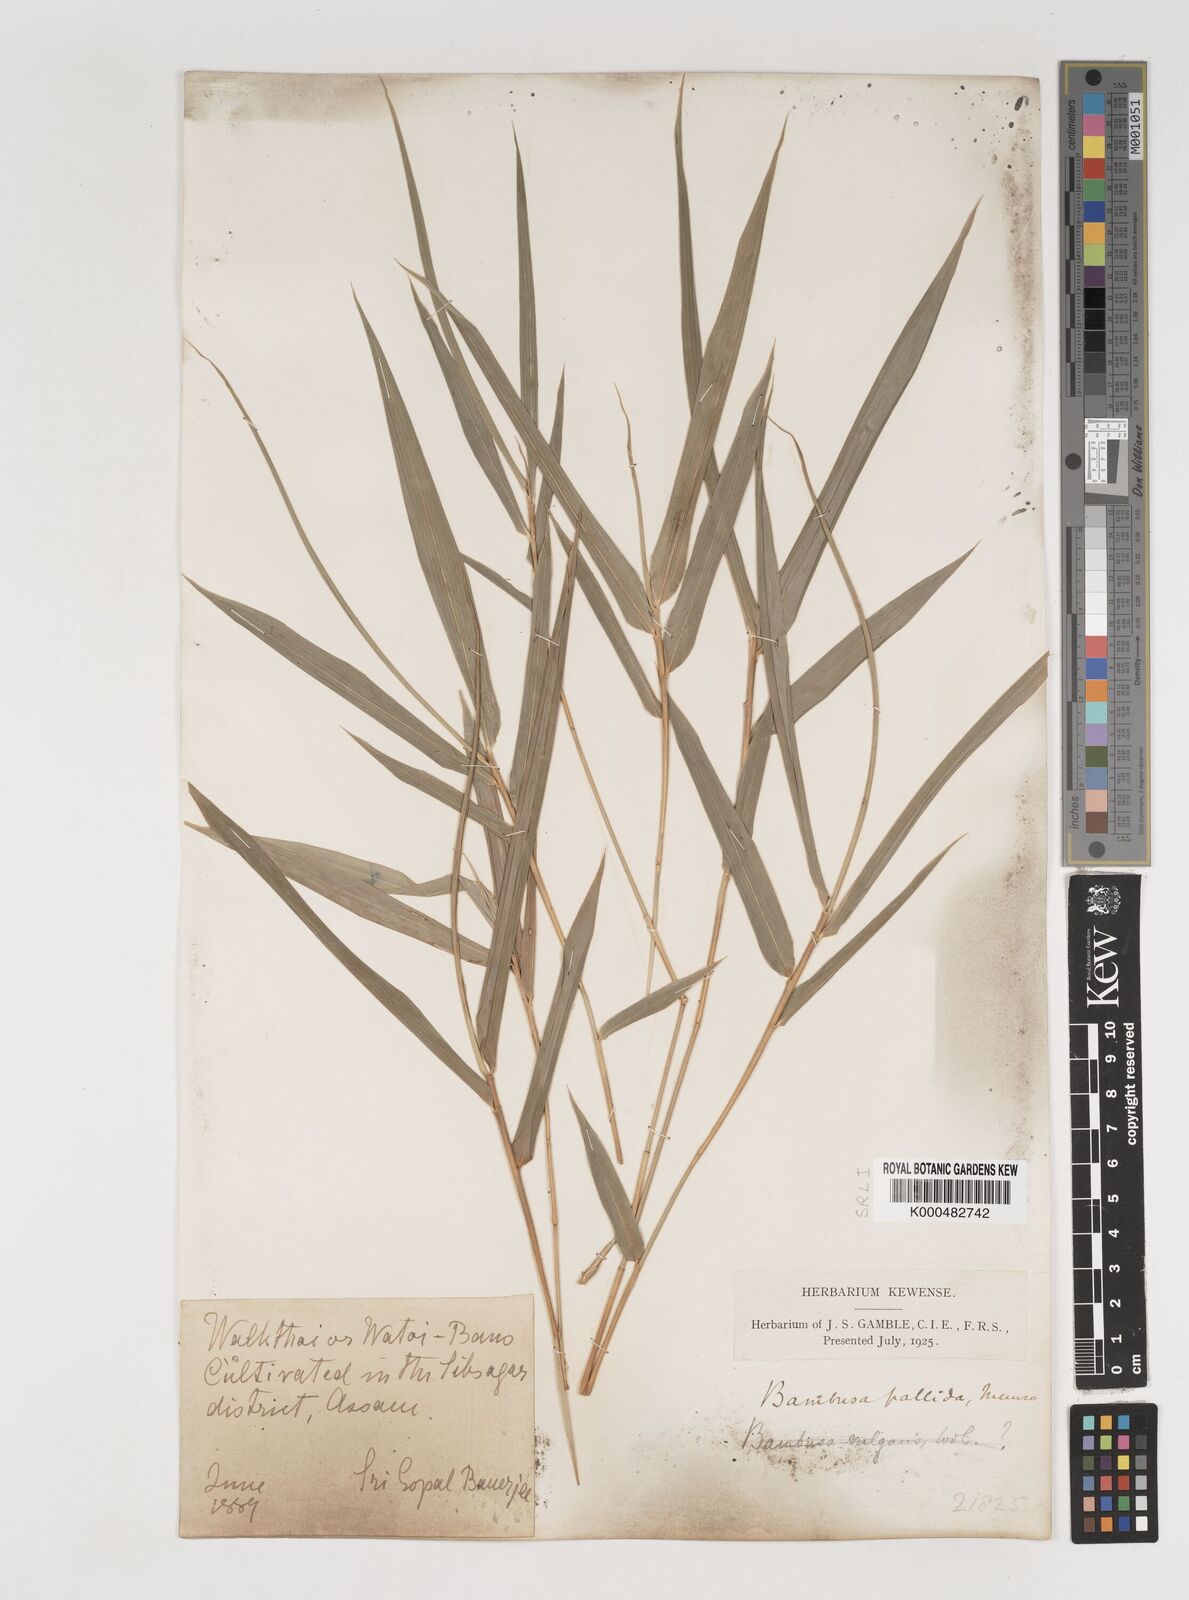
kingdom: Plantae
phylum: Tracheophyta
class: Liliopsida
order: Poales
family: Poaceae
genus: Bambusa
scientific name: Bambusa pallida
